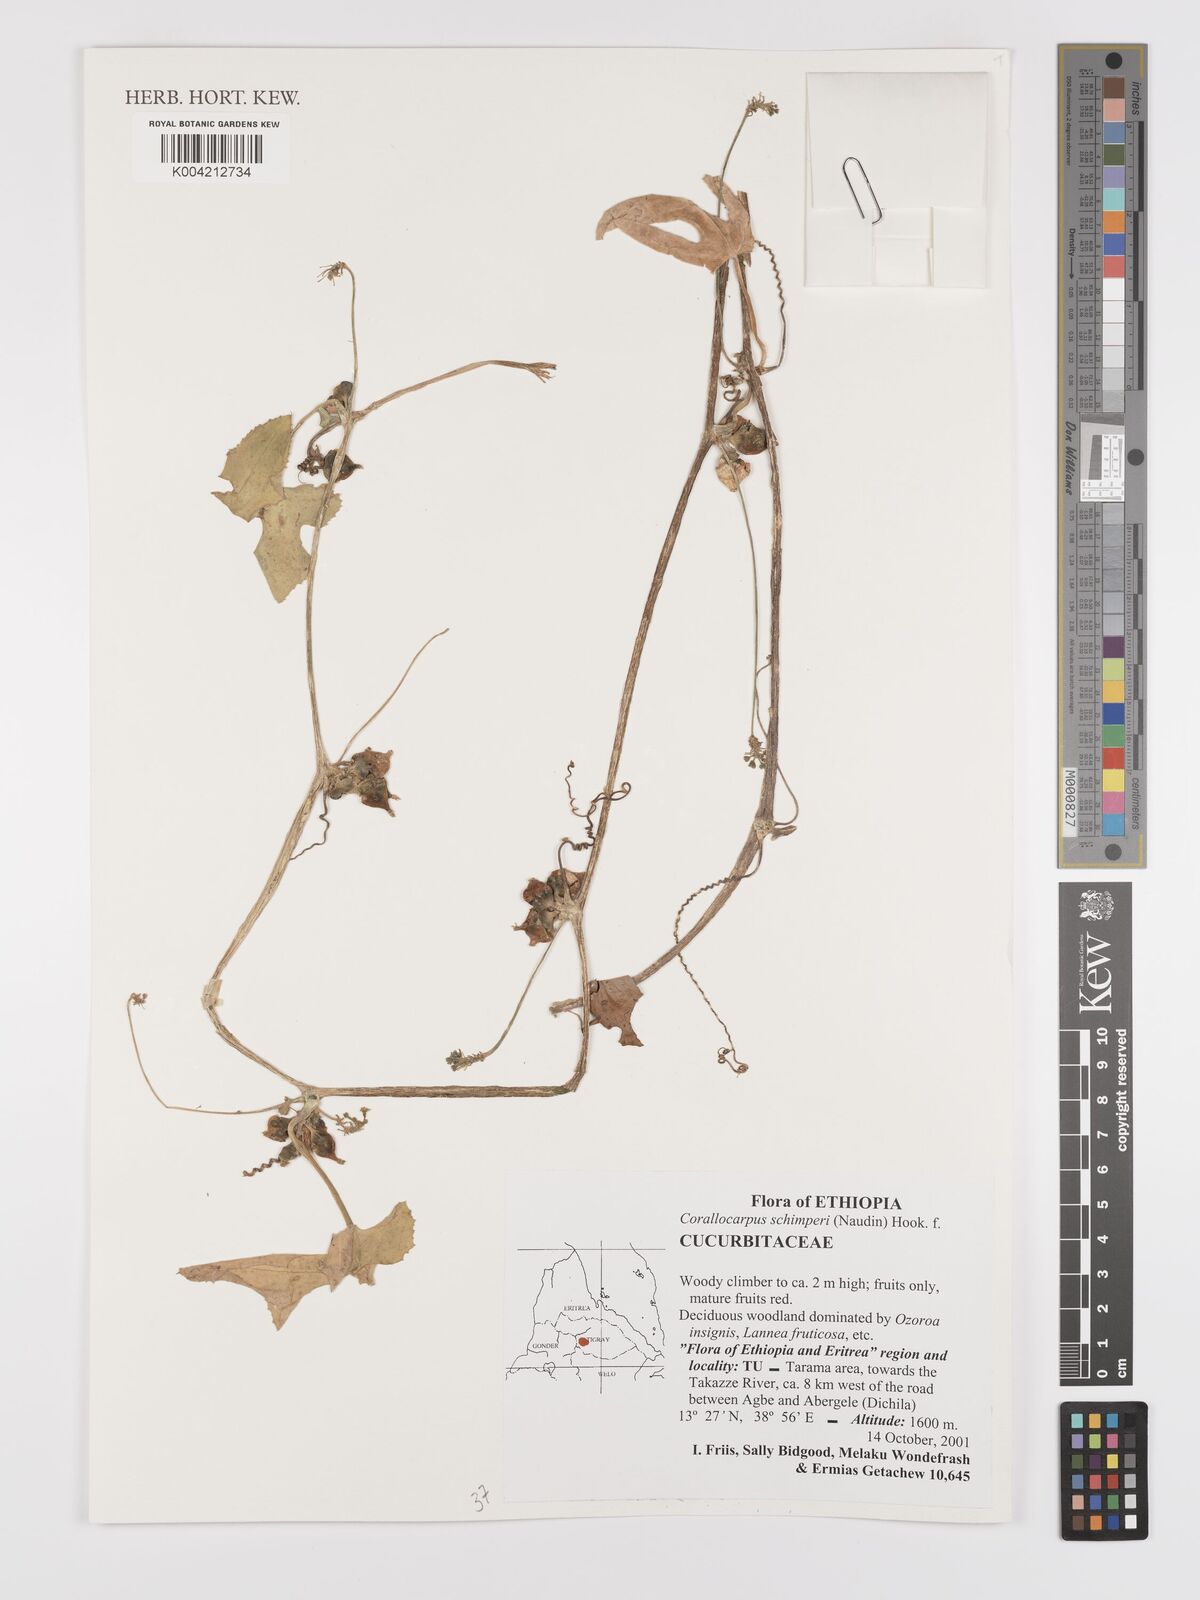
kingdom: Plantae
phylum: Tracheophyta
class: Magnoliopsida
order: Cucurbitales
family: Cucurbitaceae
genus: Corallocarpus
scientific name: Corallocarpus schimperi
